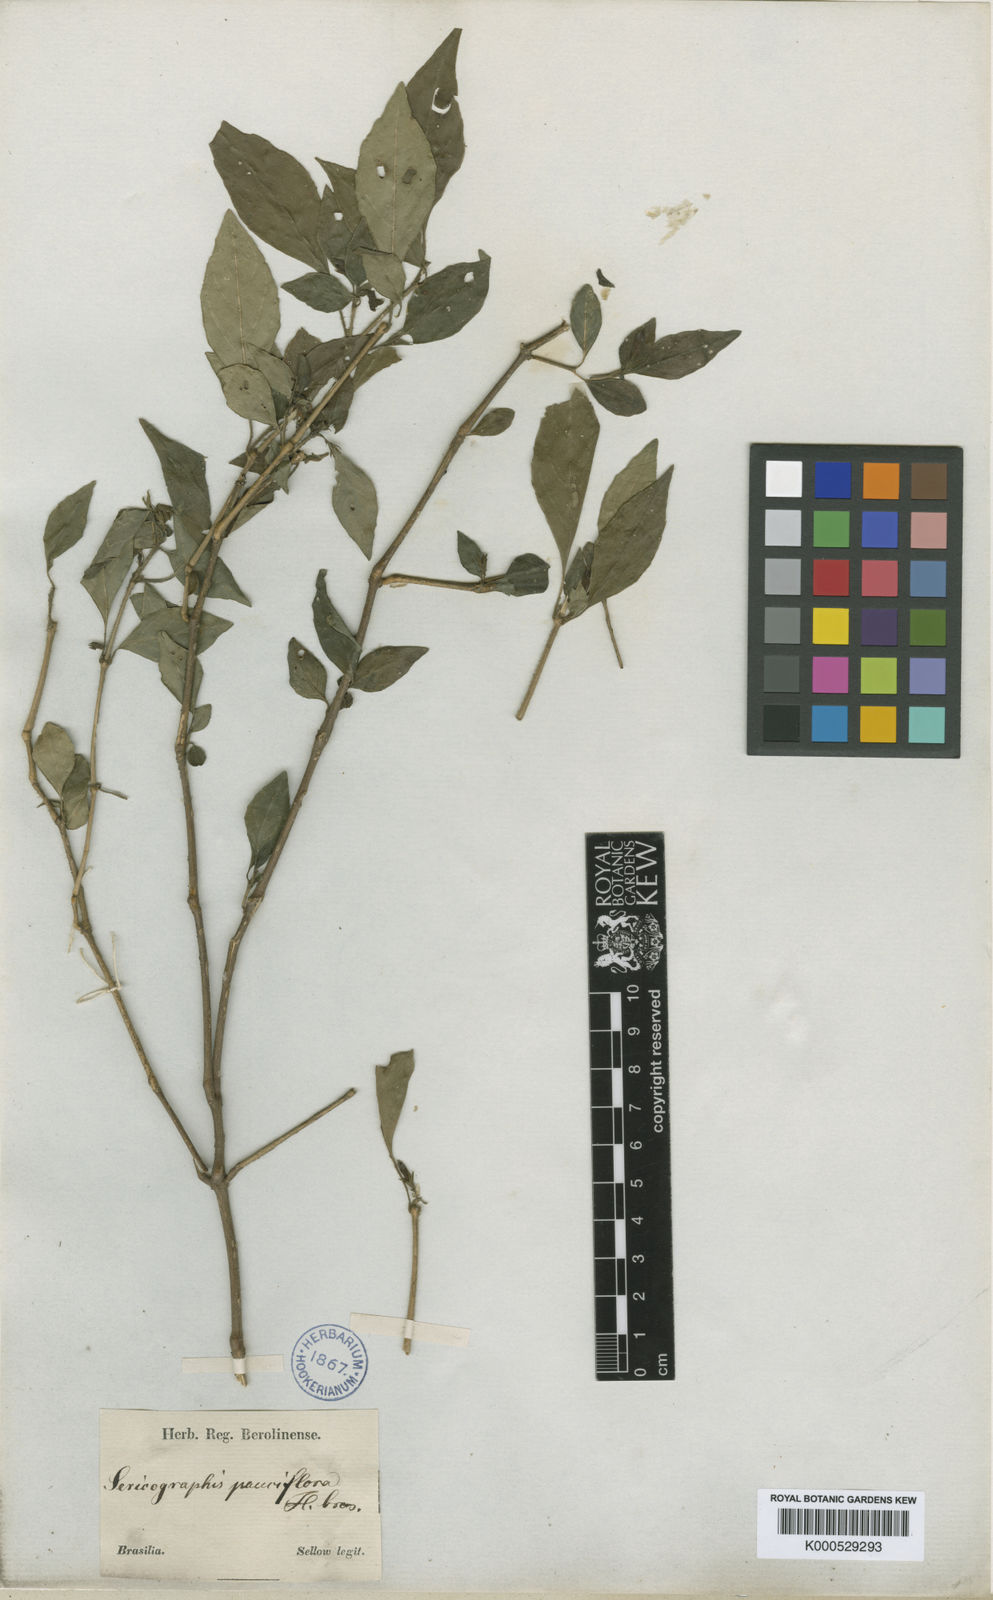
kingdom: Plantae
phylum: Tracheophyta
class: Magnoliopsida
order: Lamiales
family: Acanthaceae
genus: Justicia
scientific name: Justicia floribunda
